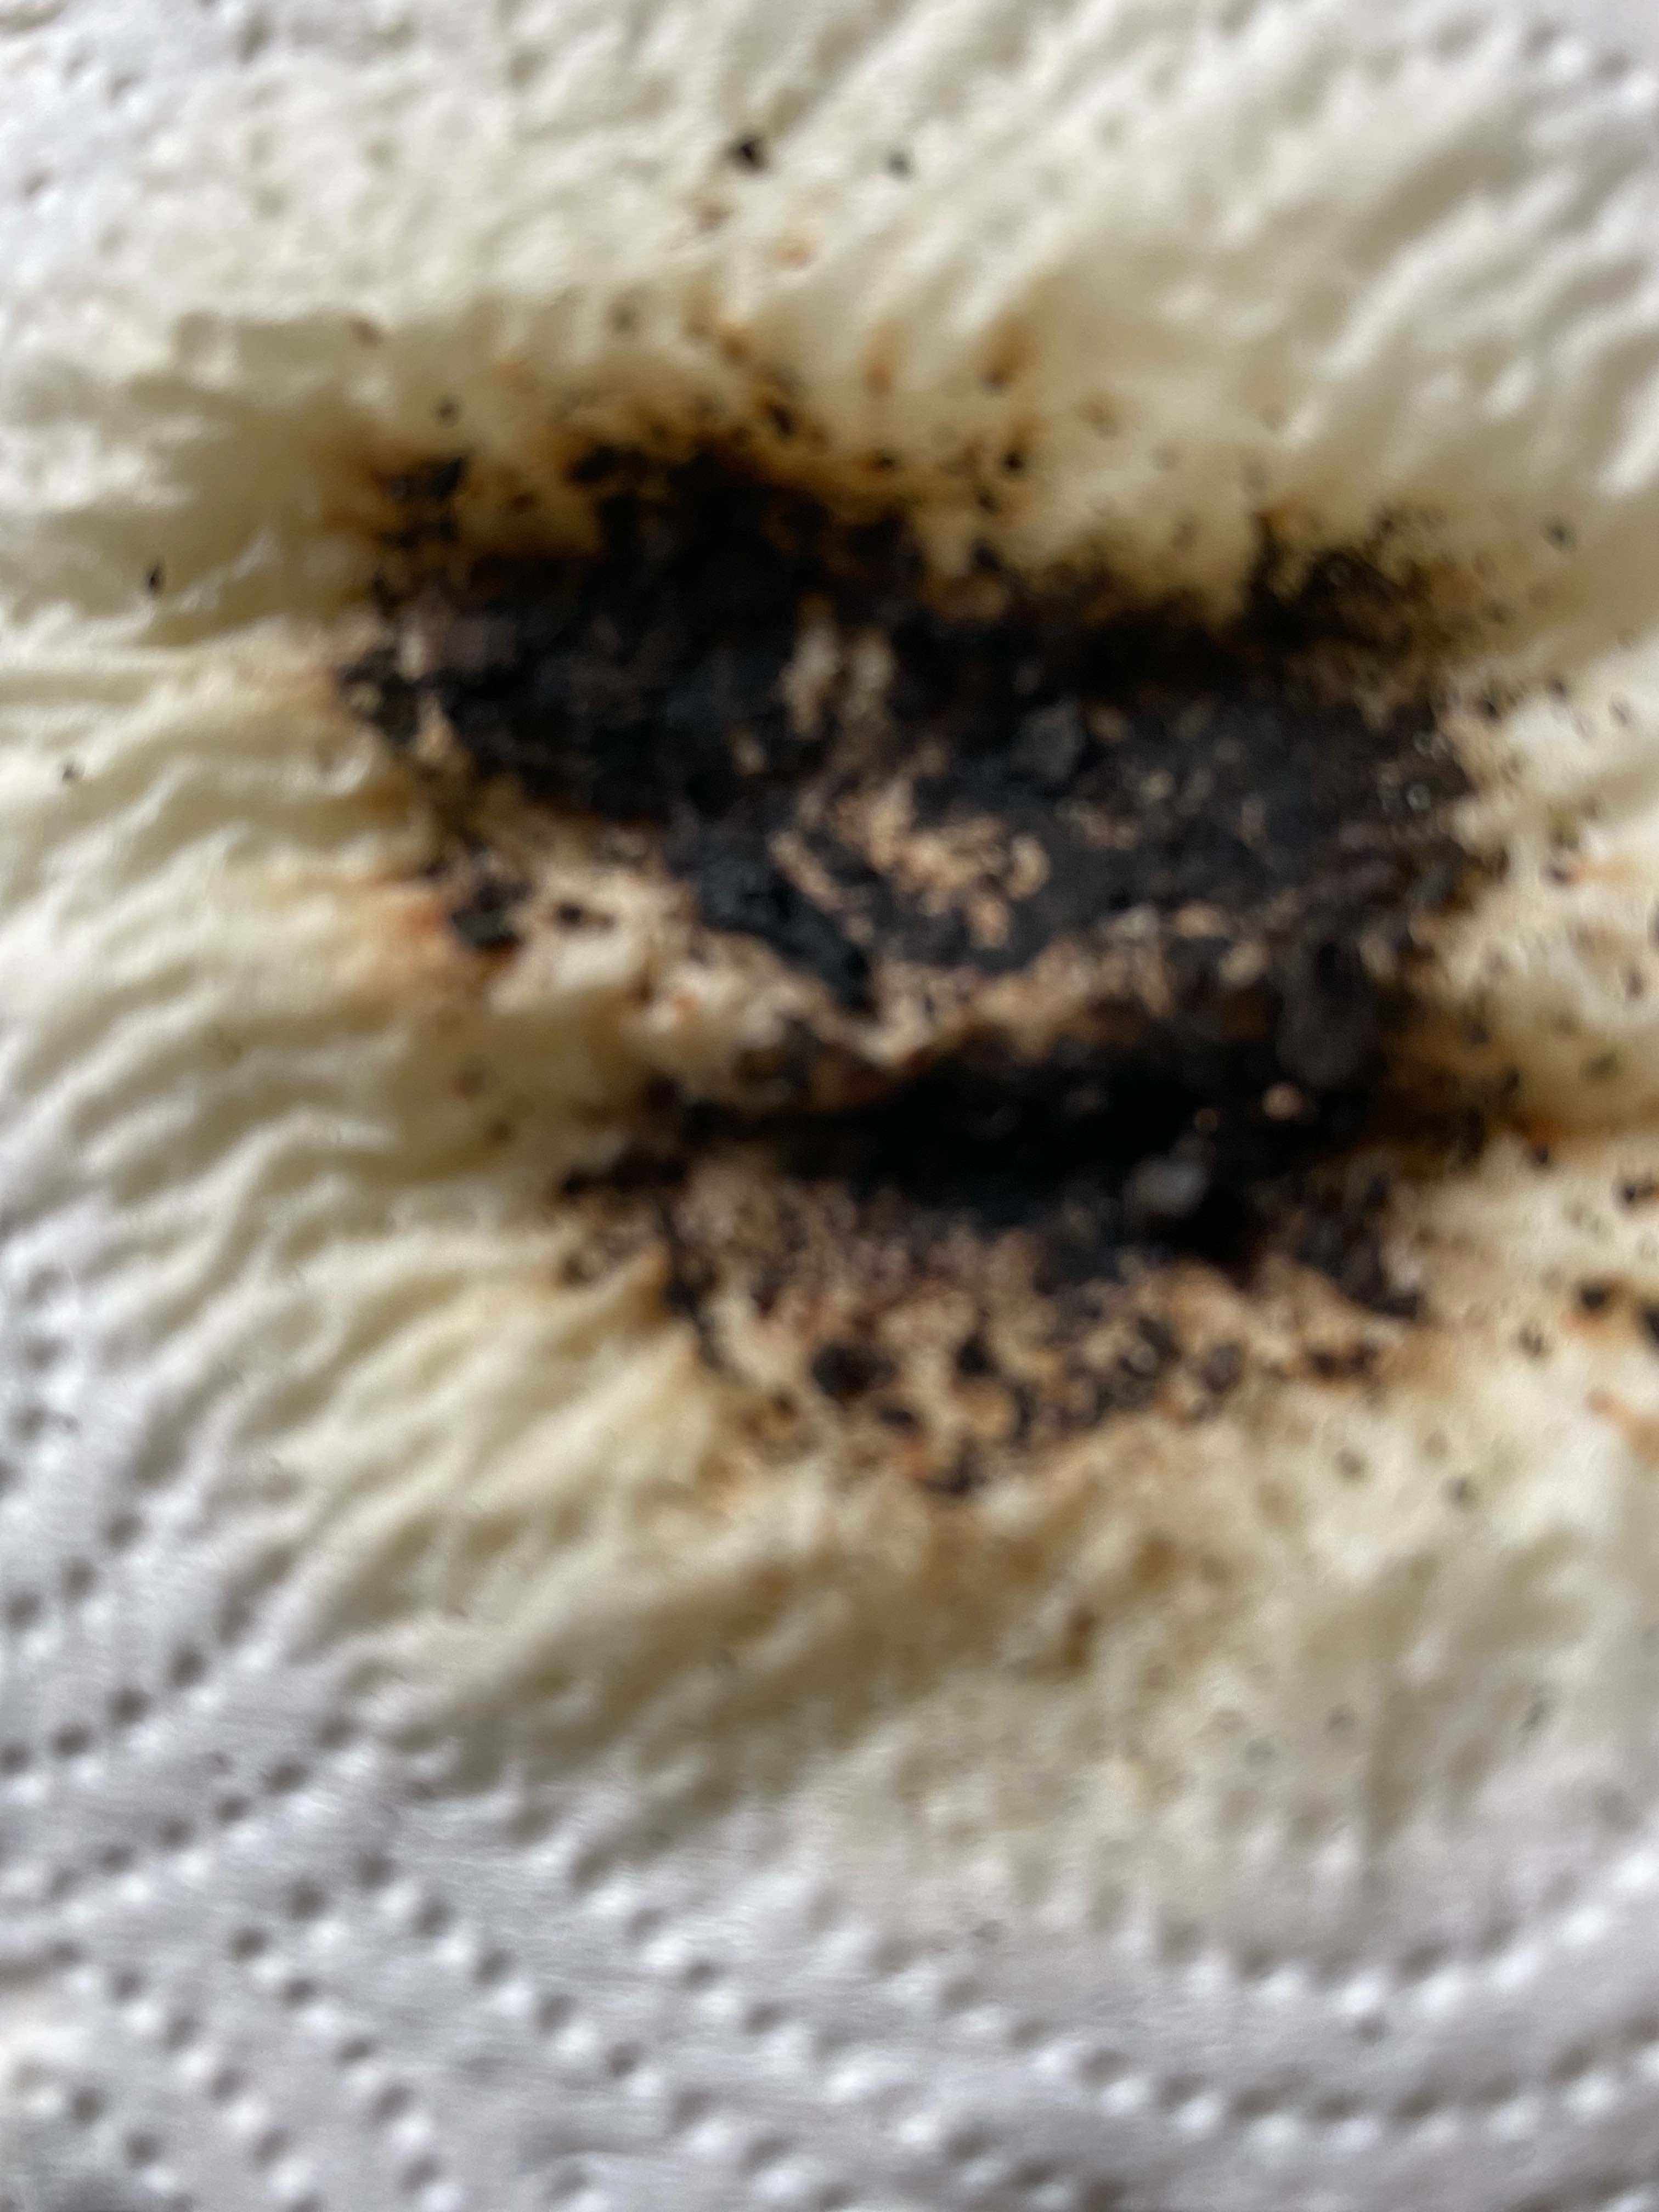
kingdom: Fungi
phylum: Ascomycota
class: Sordariomycetes
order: Xylariales
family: Hypoxylaceae
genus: Jackrogersella
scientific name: Jackrogersella cohaerens
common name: sammenflydende kulbær
